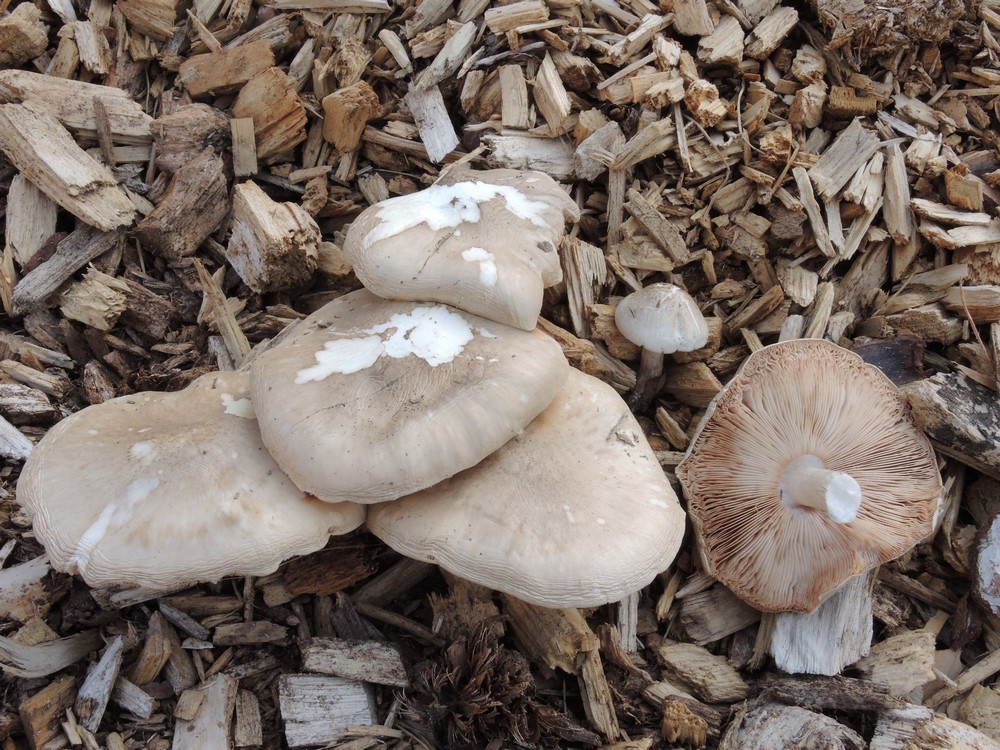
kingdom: Fungi
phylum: Basidiomycota
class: Agaricomycetes
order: Agaricales
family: Pluteaceae
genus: Pluteus
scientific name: Pluteus cervinus
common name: sodfarvet skærmhat
